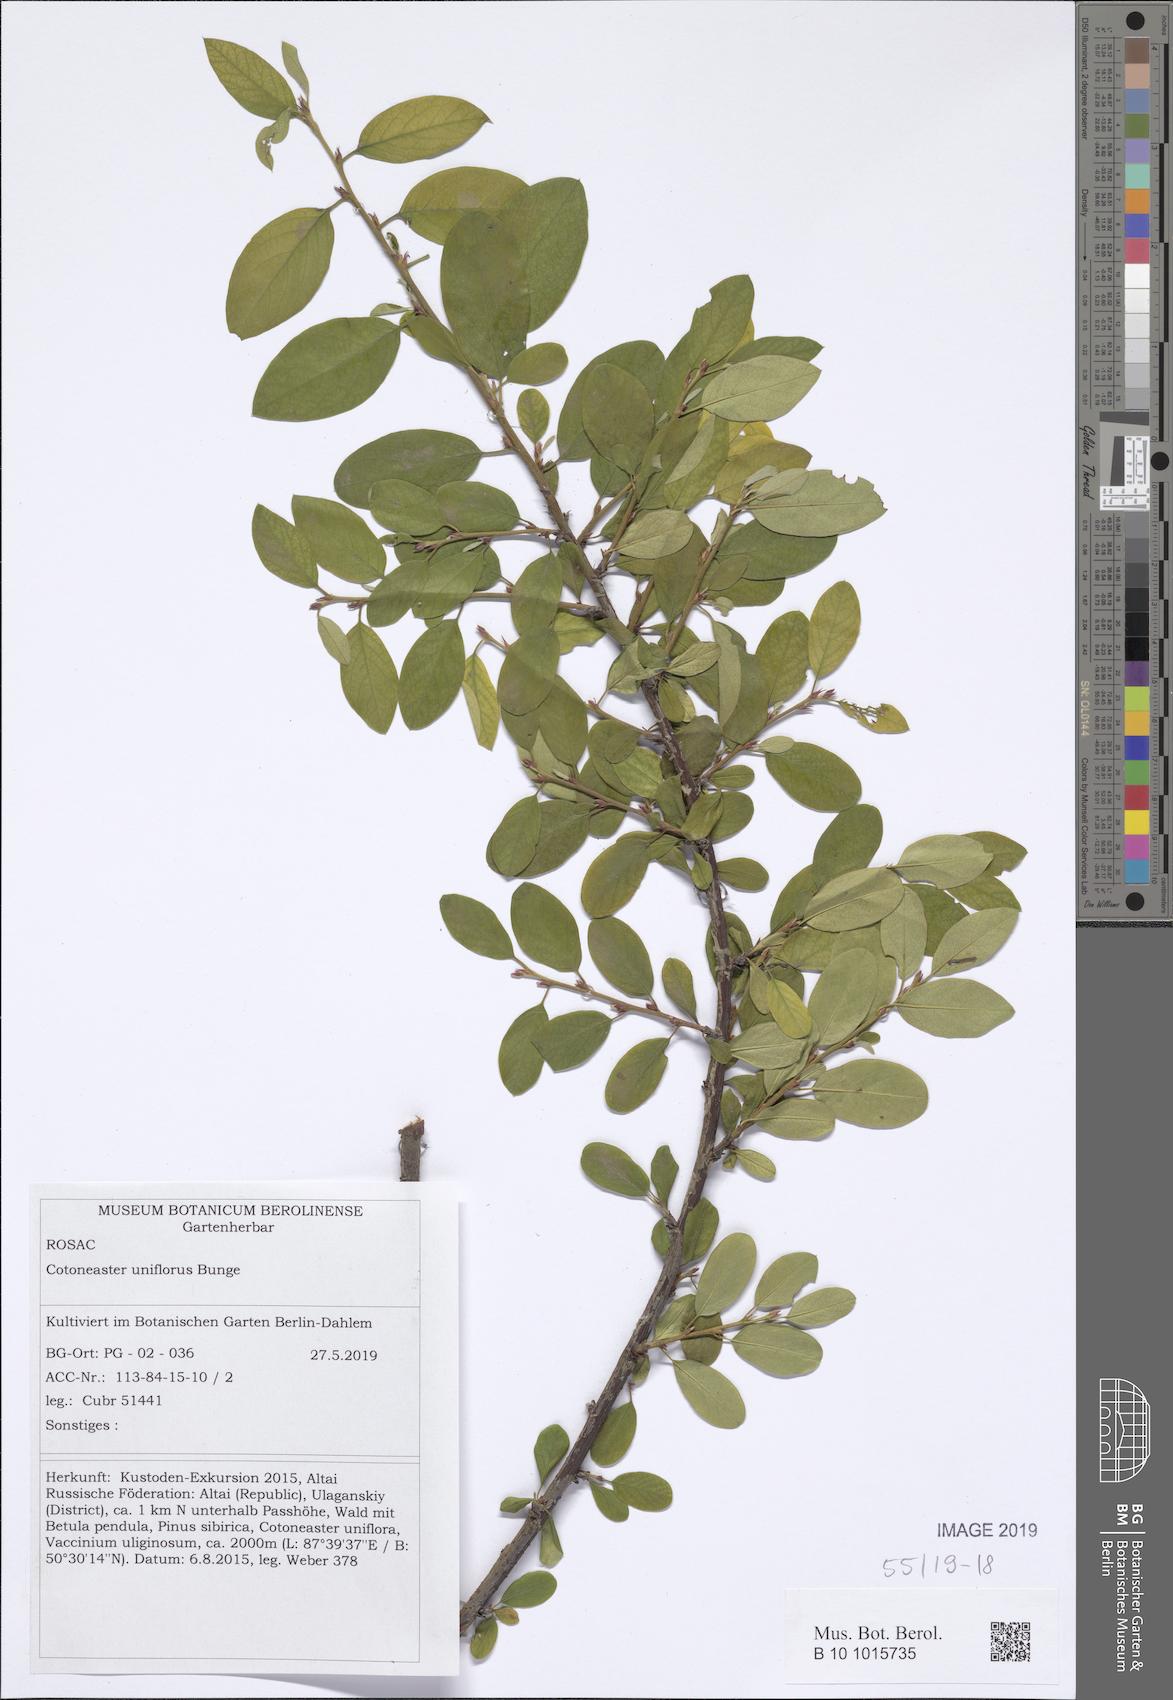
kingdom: Plantae
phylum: Tracheophyta
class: Magnoliopsida
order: Rosales
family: Rosaceae
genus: Cotoneaster
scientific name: Cotoneaster uniflorus
